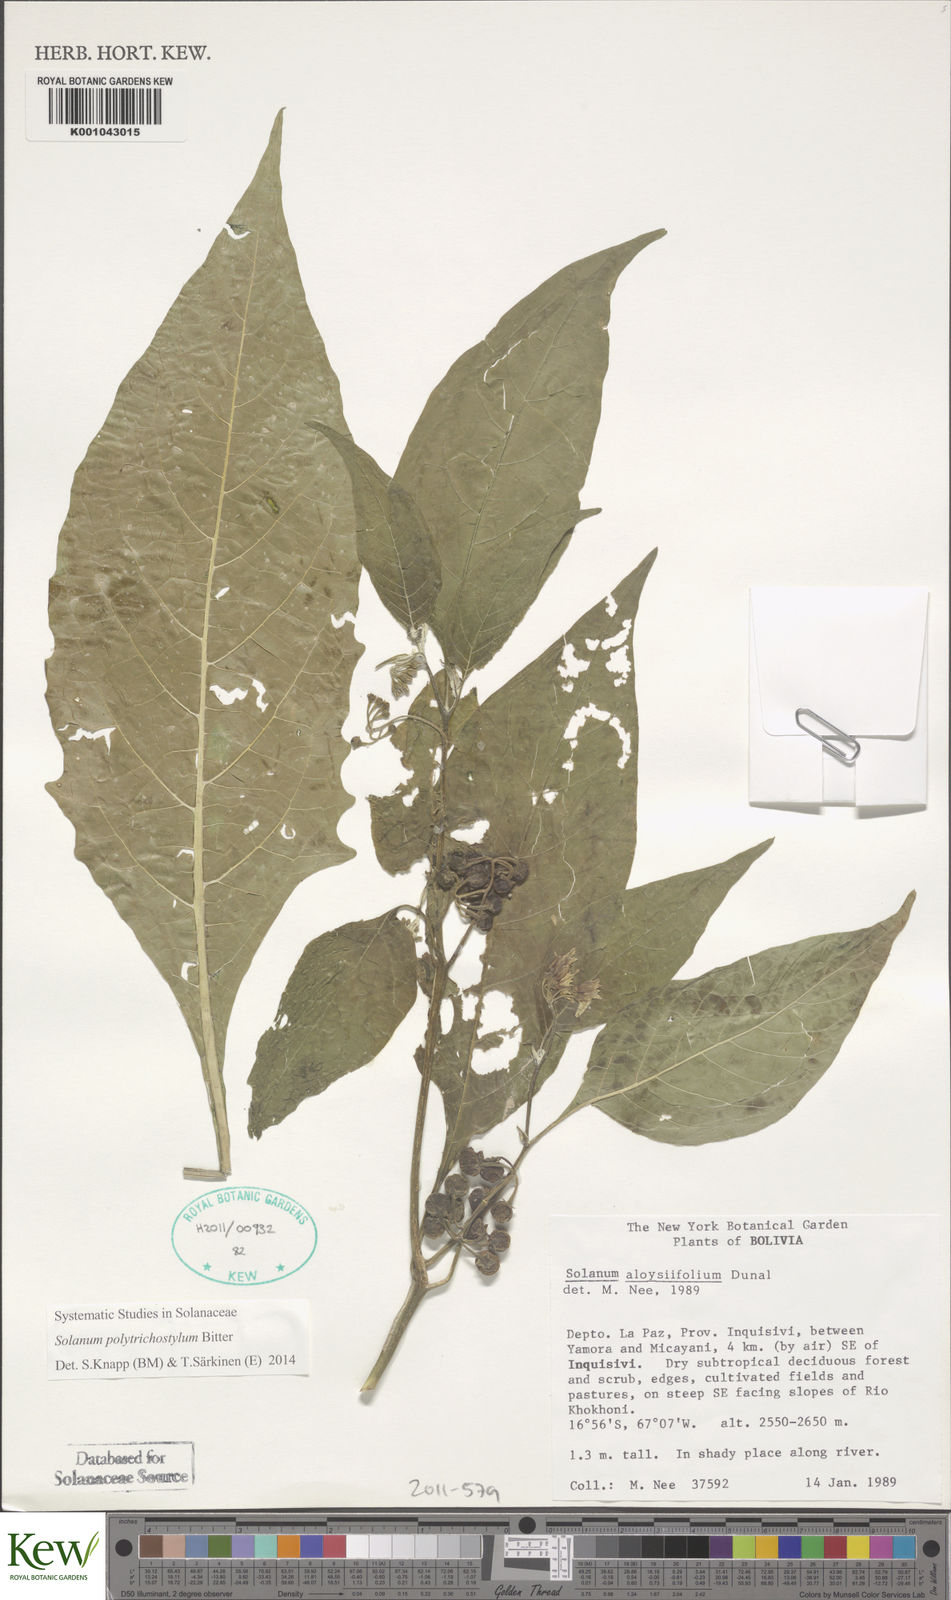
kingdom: Plantae
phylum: Tracheophyta
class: Magnoliopsida
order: Solanales
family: Solanaceae
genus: Solanum
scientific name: Solanum polytrichostylum
